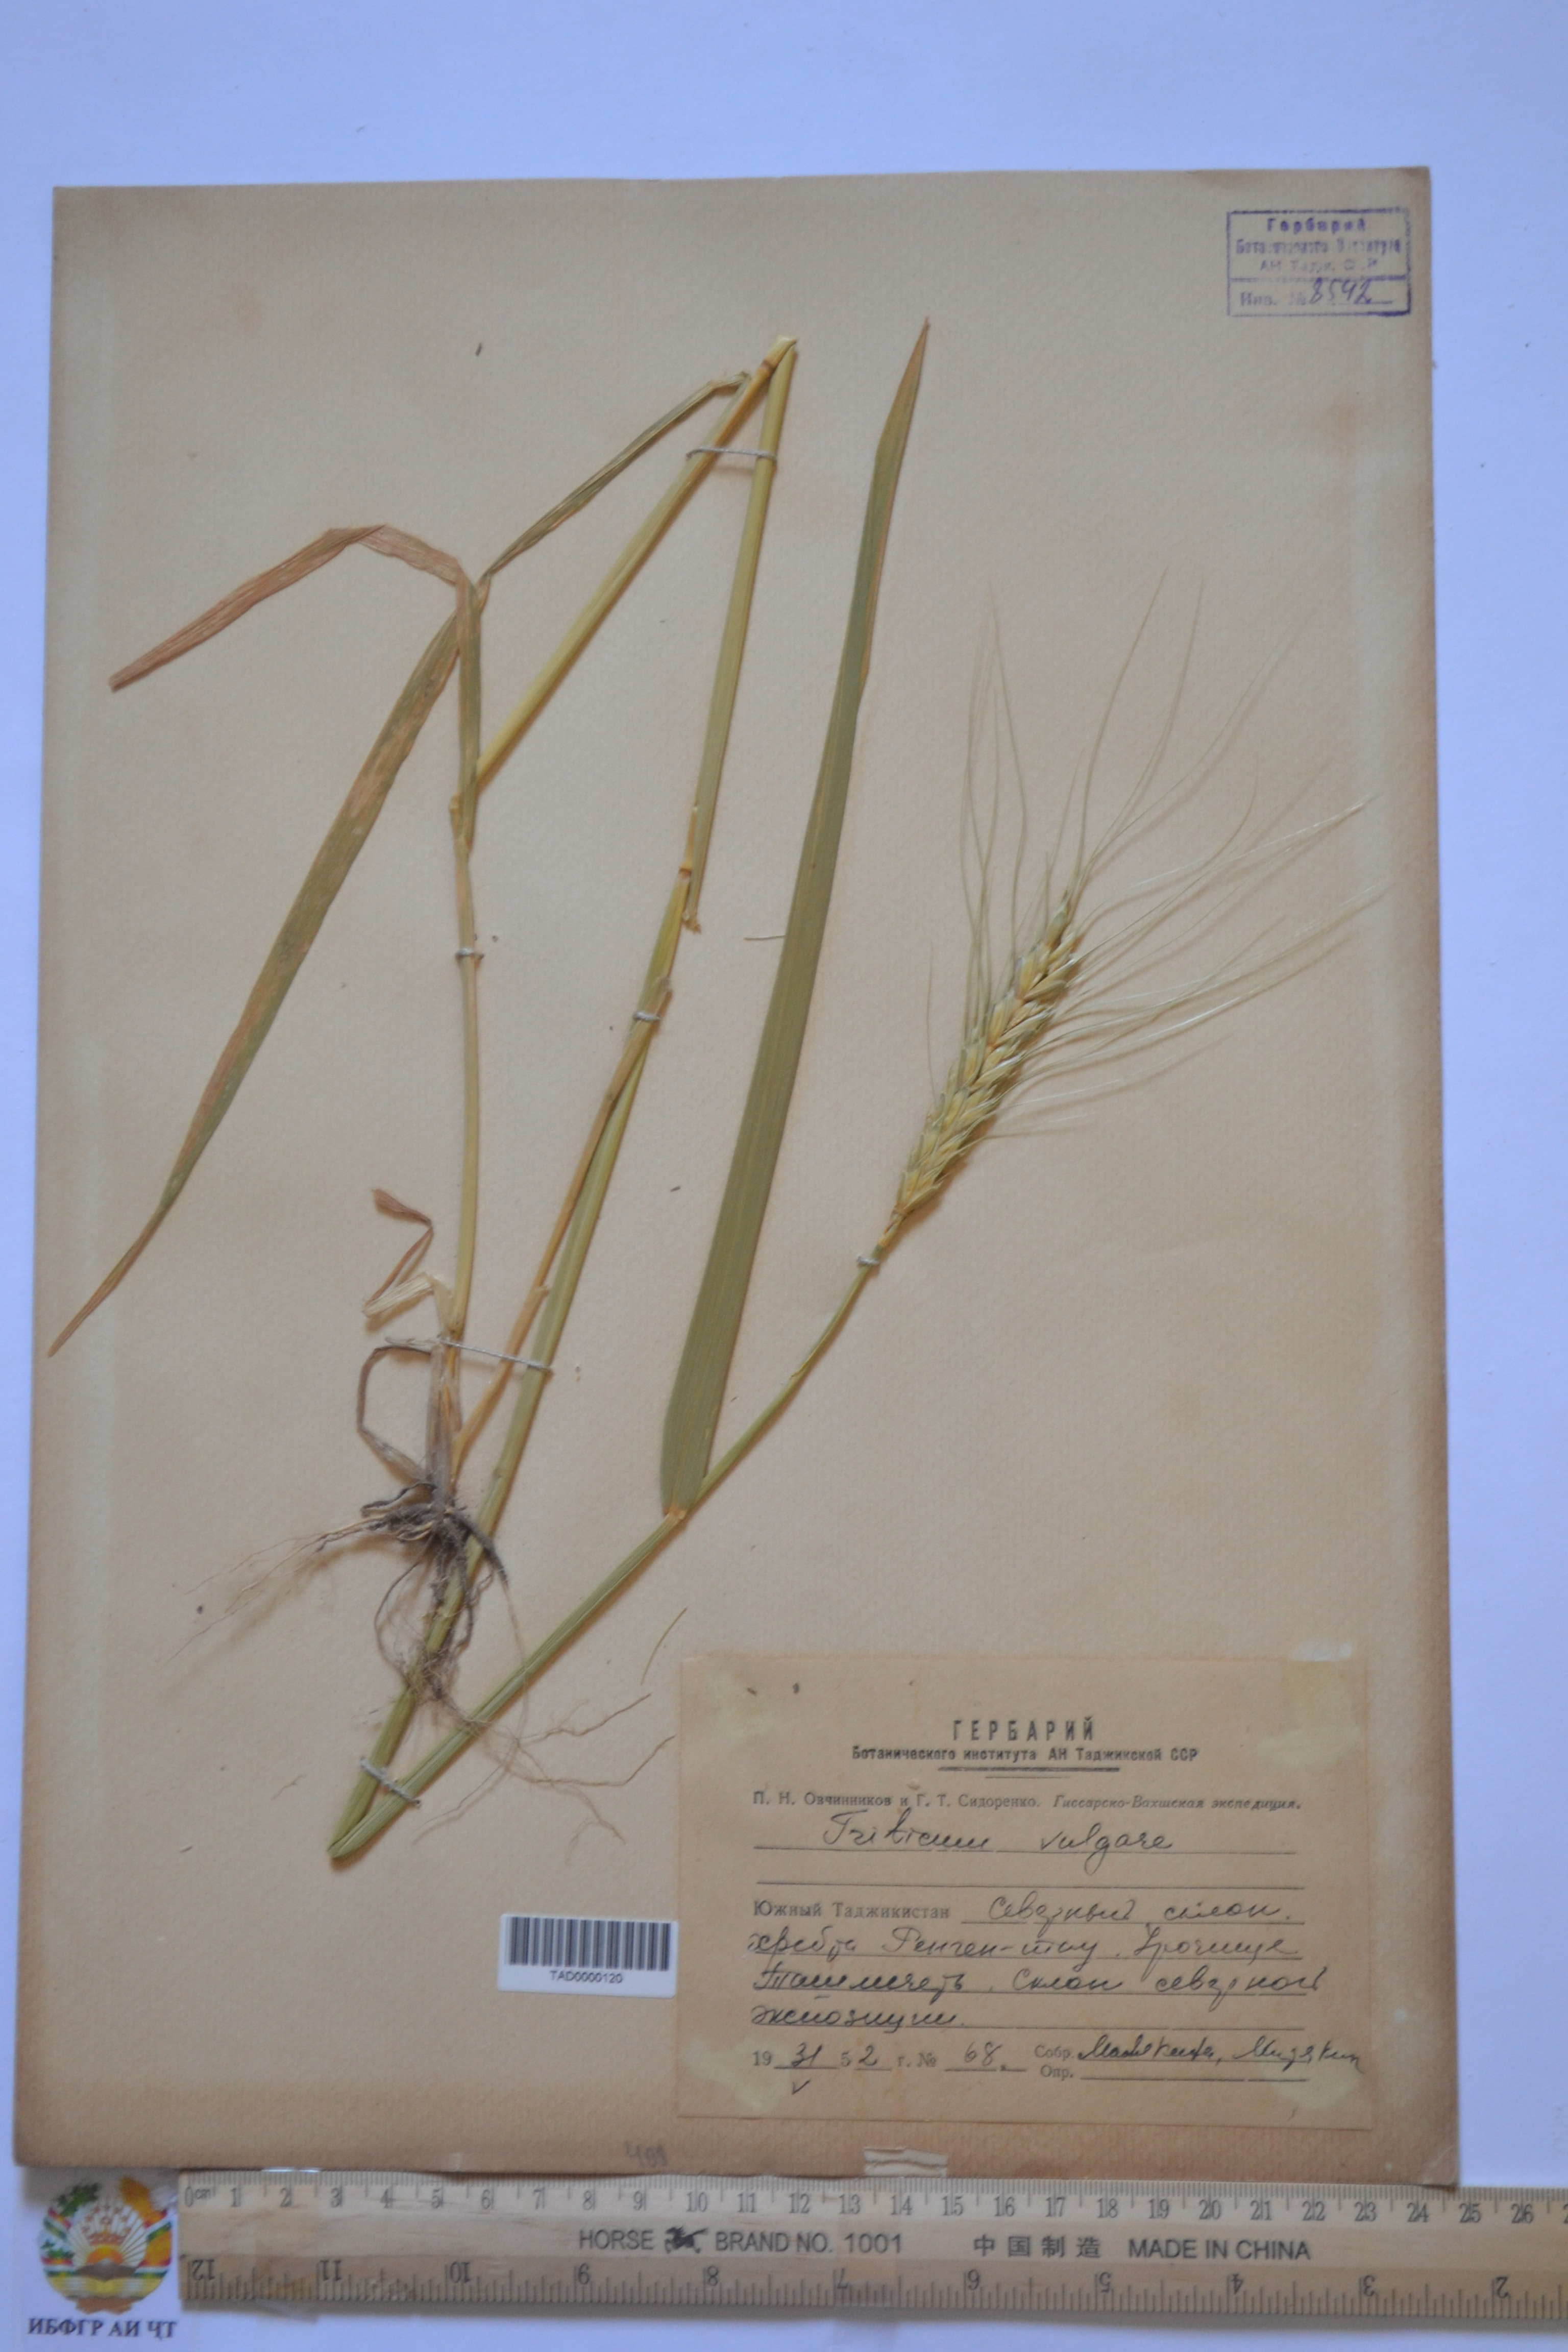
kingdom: Plantae
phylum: Tracheophyta
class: Liliopsida
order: Poales
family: Poaceae
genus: Hordeum
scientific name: Hordeum vulgare
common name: Common barley
